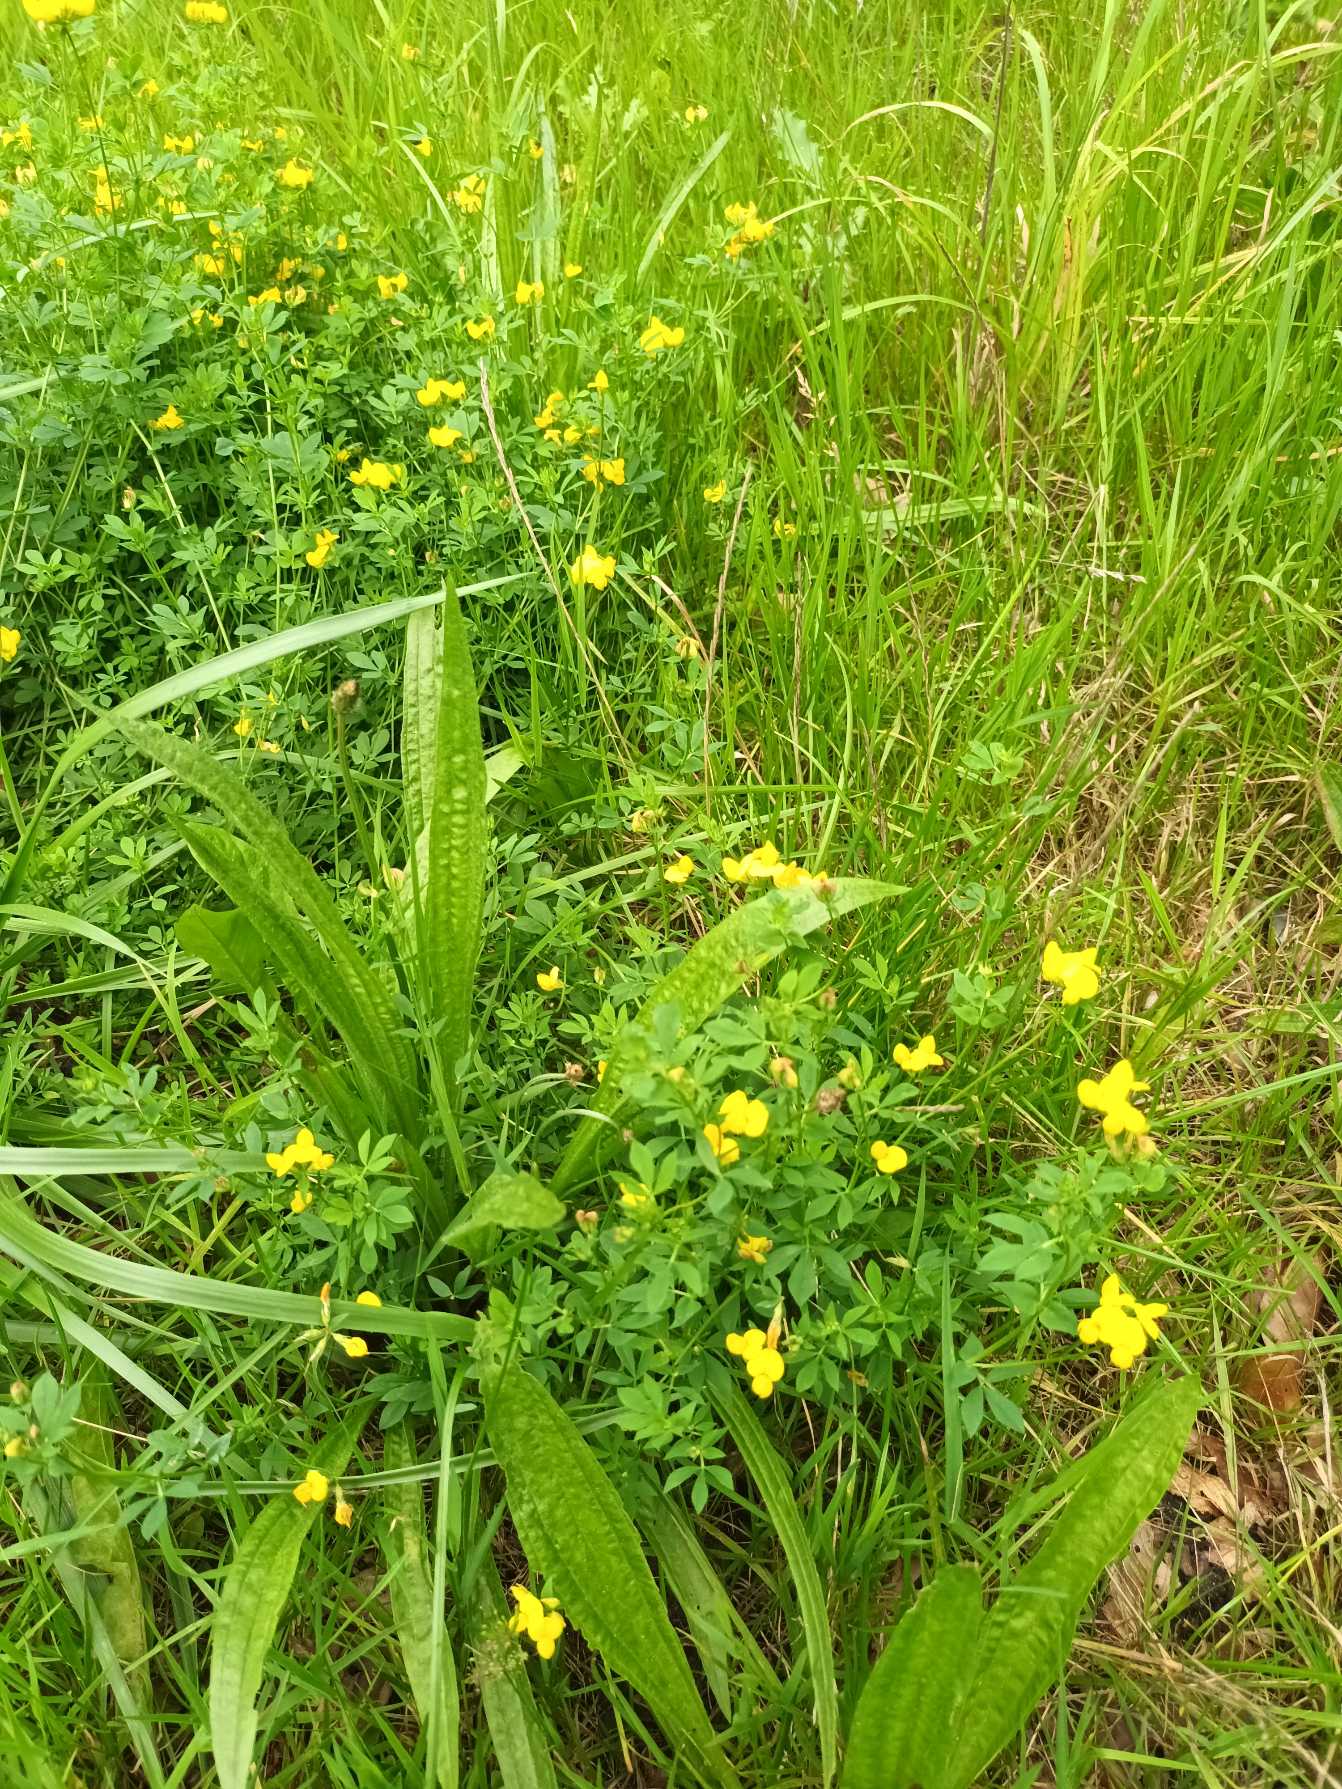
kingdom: Plantae
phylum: Tracheophyta
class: Magnoliopsida
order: Fabales
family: Fabaceae
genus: Lotus
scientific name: Lotus corniculatus
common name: Almindelig kællingetand
